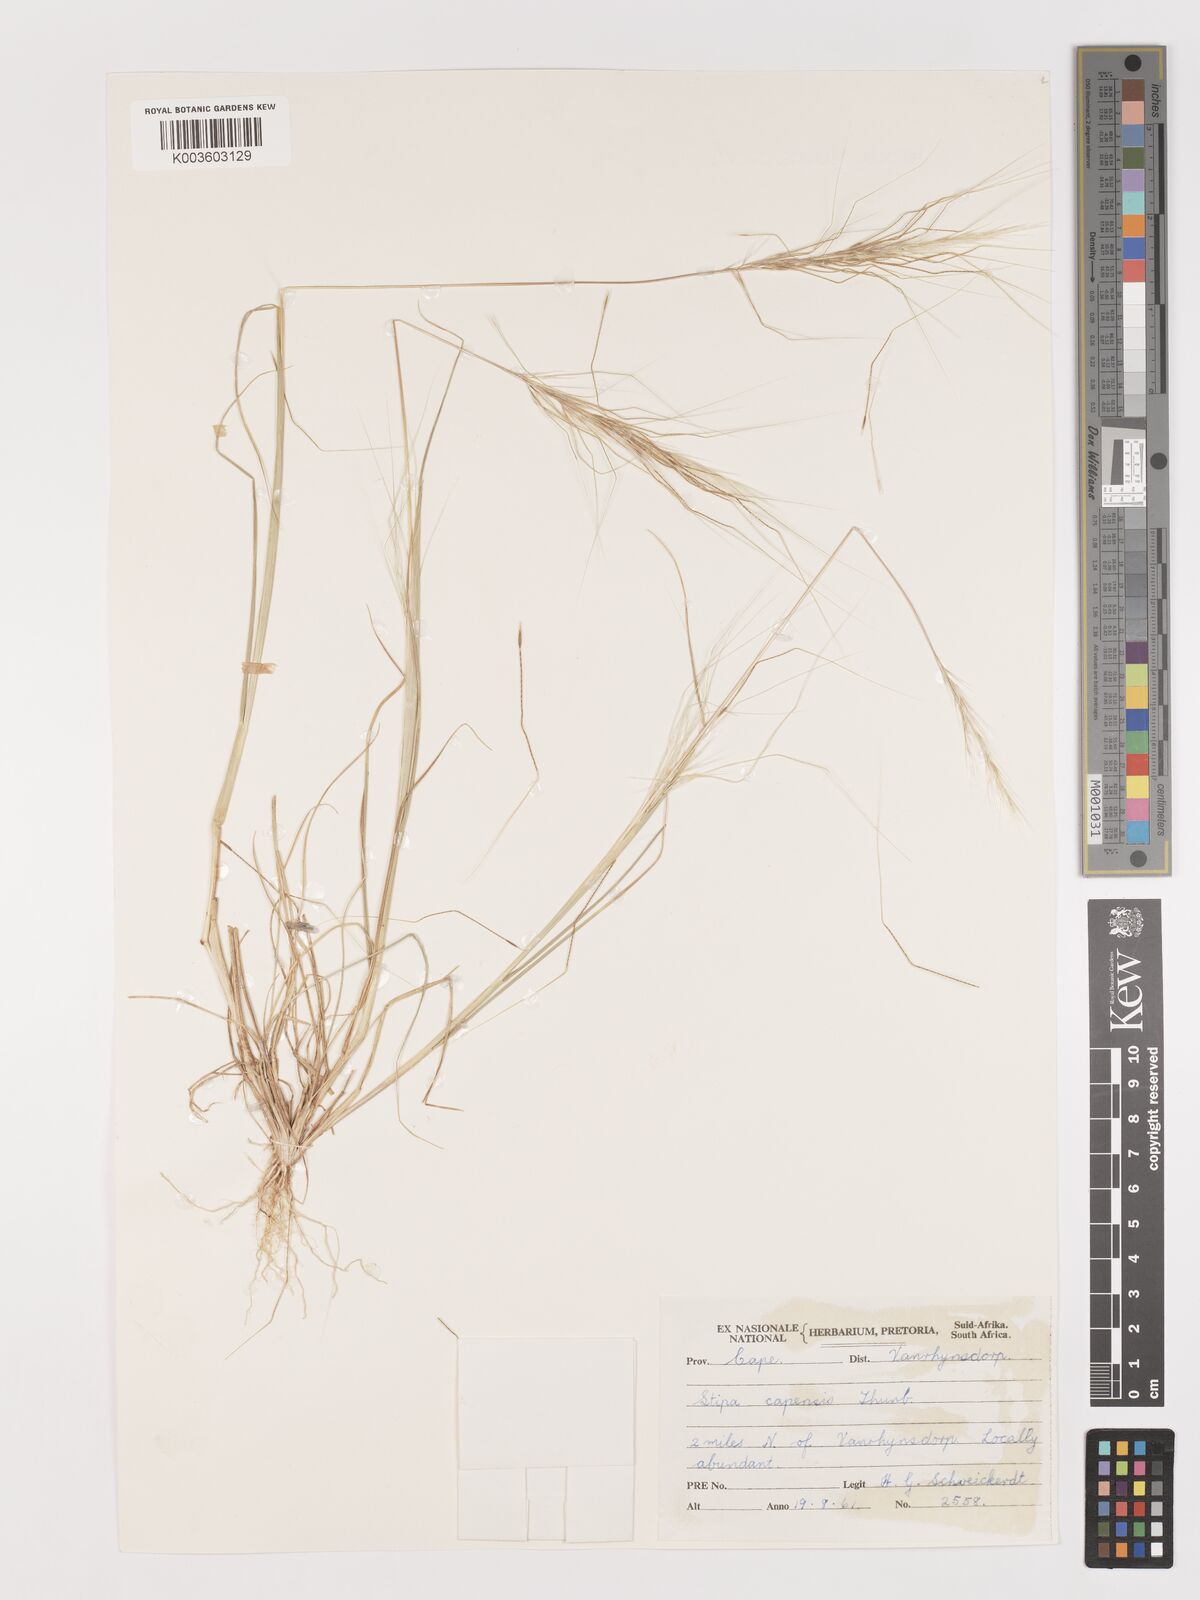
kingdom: Plantae
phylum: Tracheophyta
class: Liliopsida
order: Poales
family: Poaceae
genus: Stipellula
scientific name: Stipellula capensis
